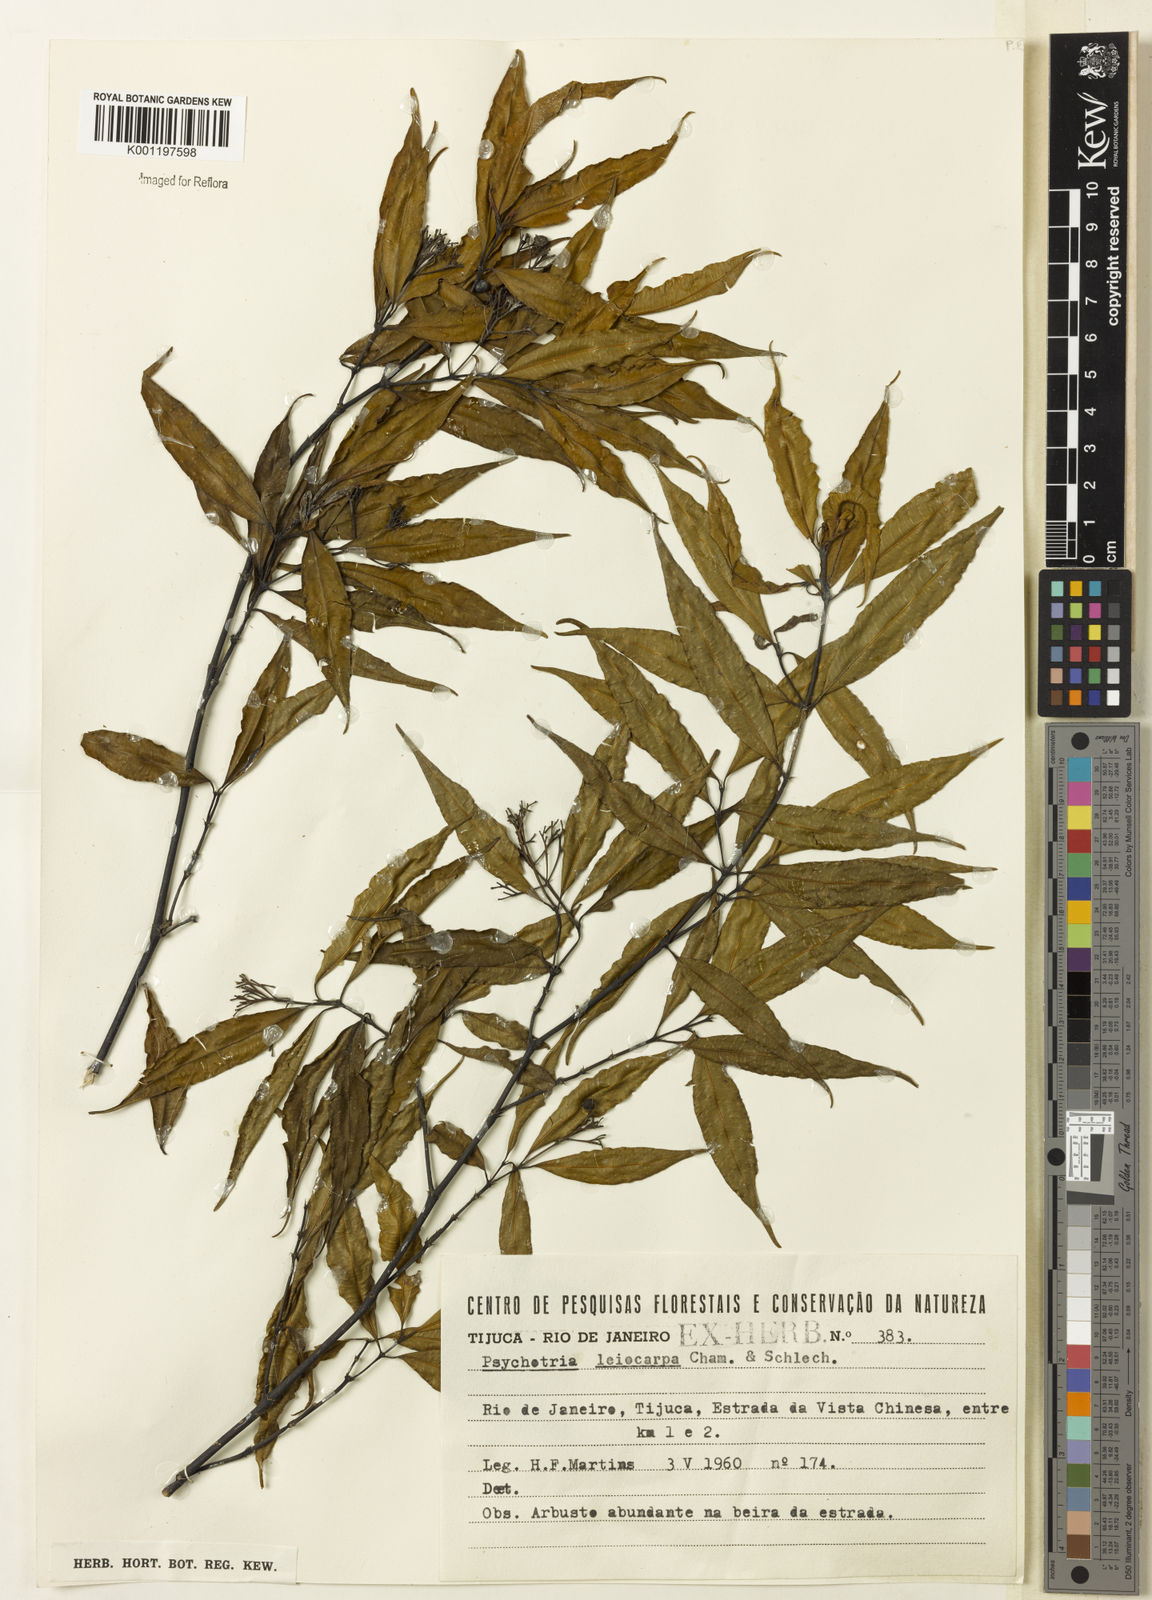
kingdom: Plantae
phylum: Tracheophyta
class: Magnoliopsida
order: Gentianales
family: Rubiaceae
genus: Psychotria
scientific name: Psychotria leiocarpa
